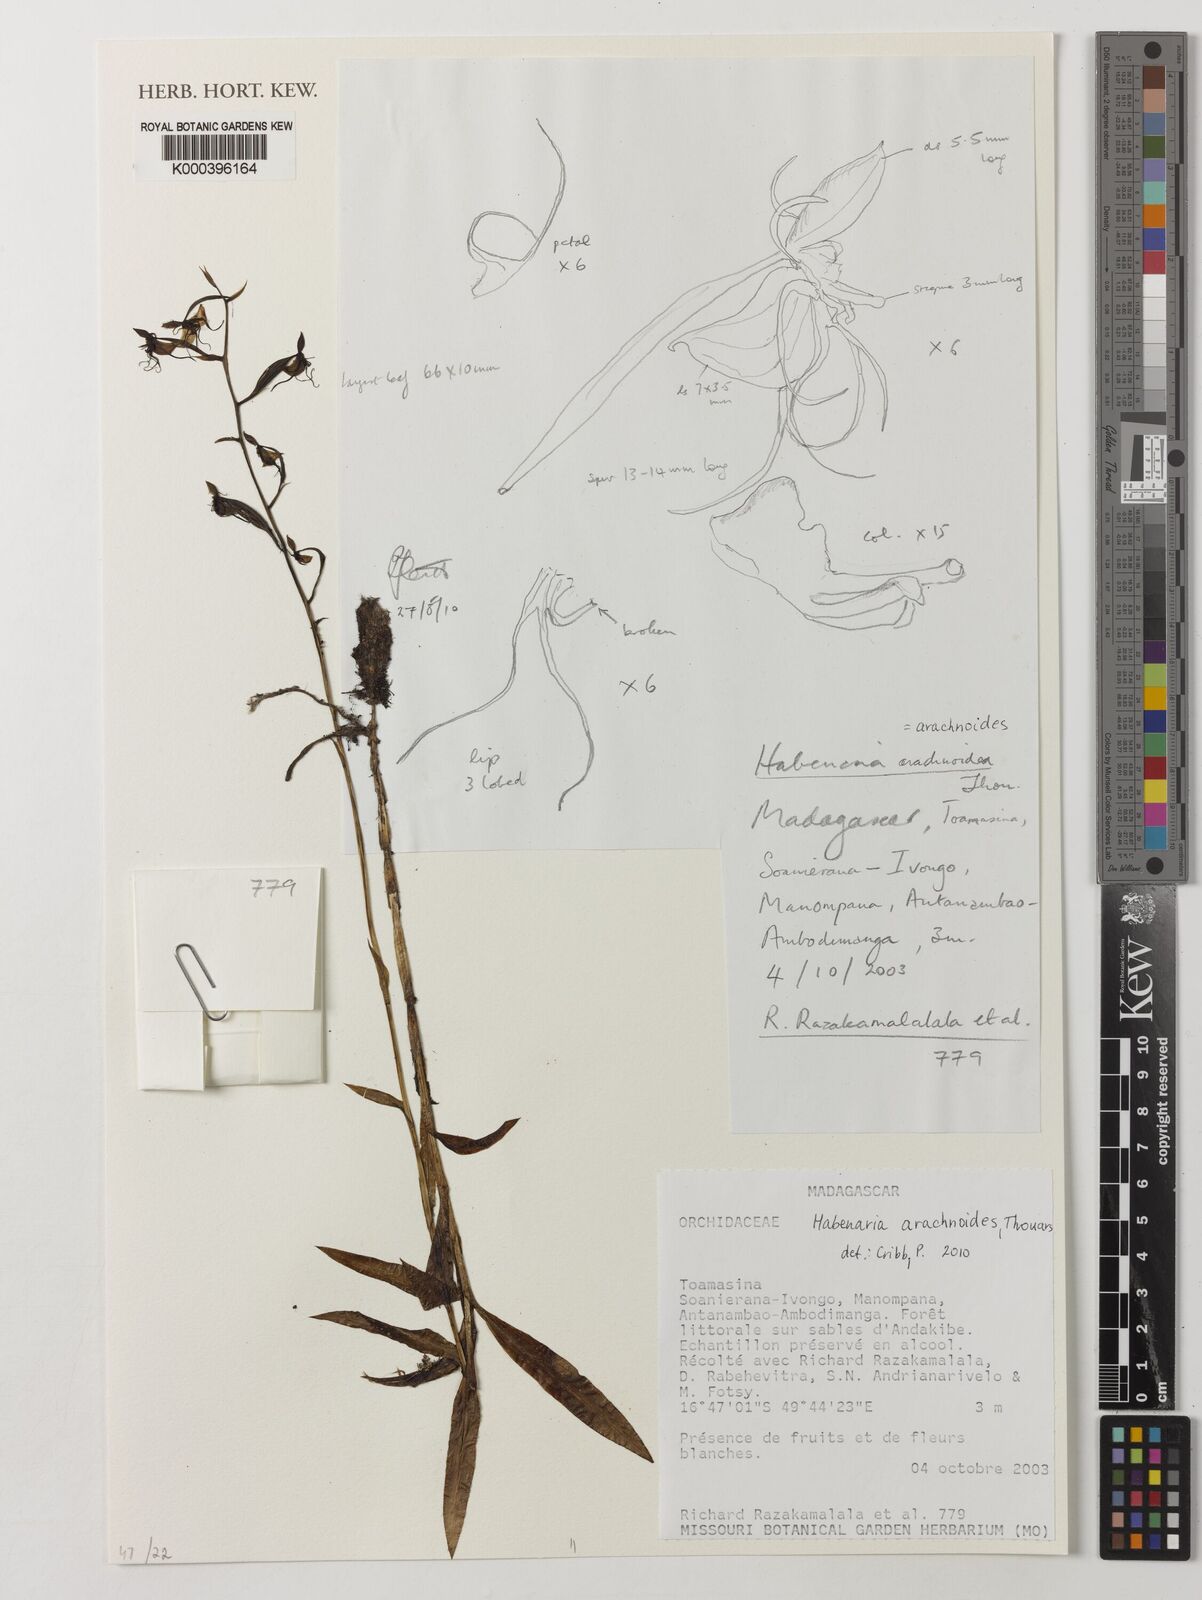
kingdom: Plantae
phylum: Tracheophyta
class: Liliopsida
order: Asparagales
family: Orchidaceae
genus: Habenaria
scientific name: Habenaria lithophila
